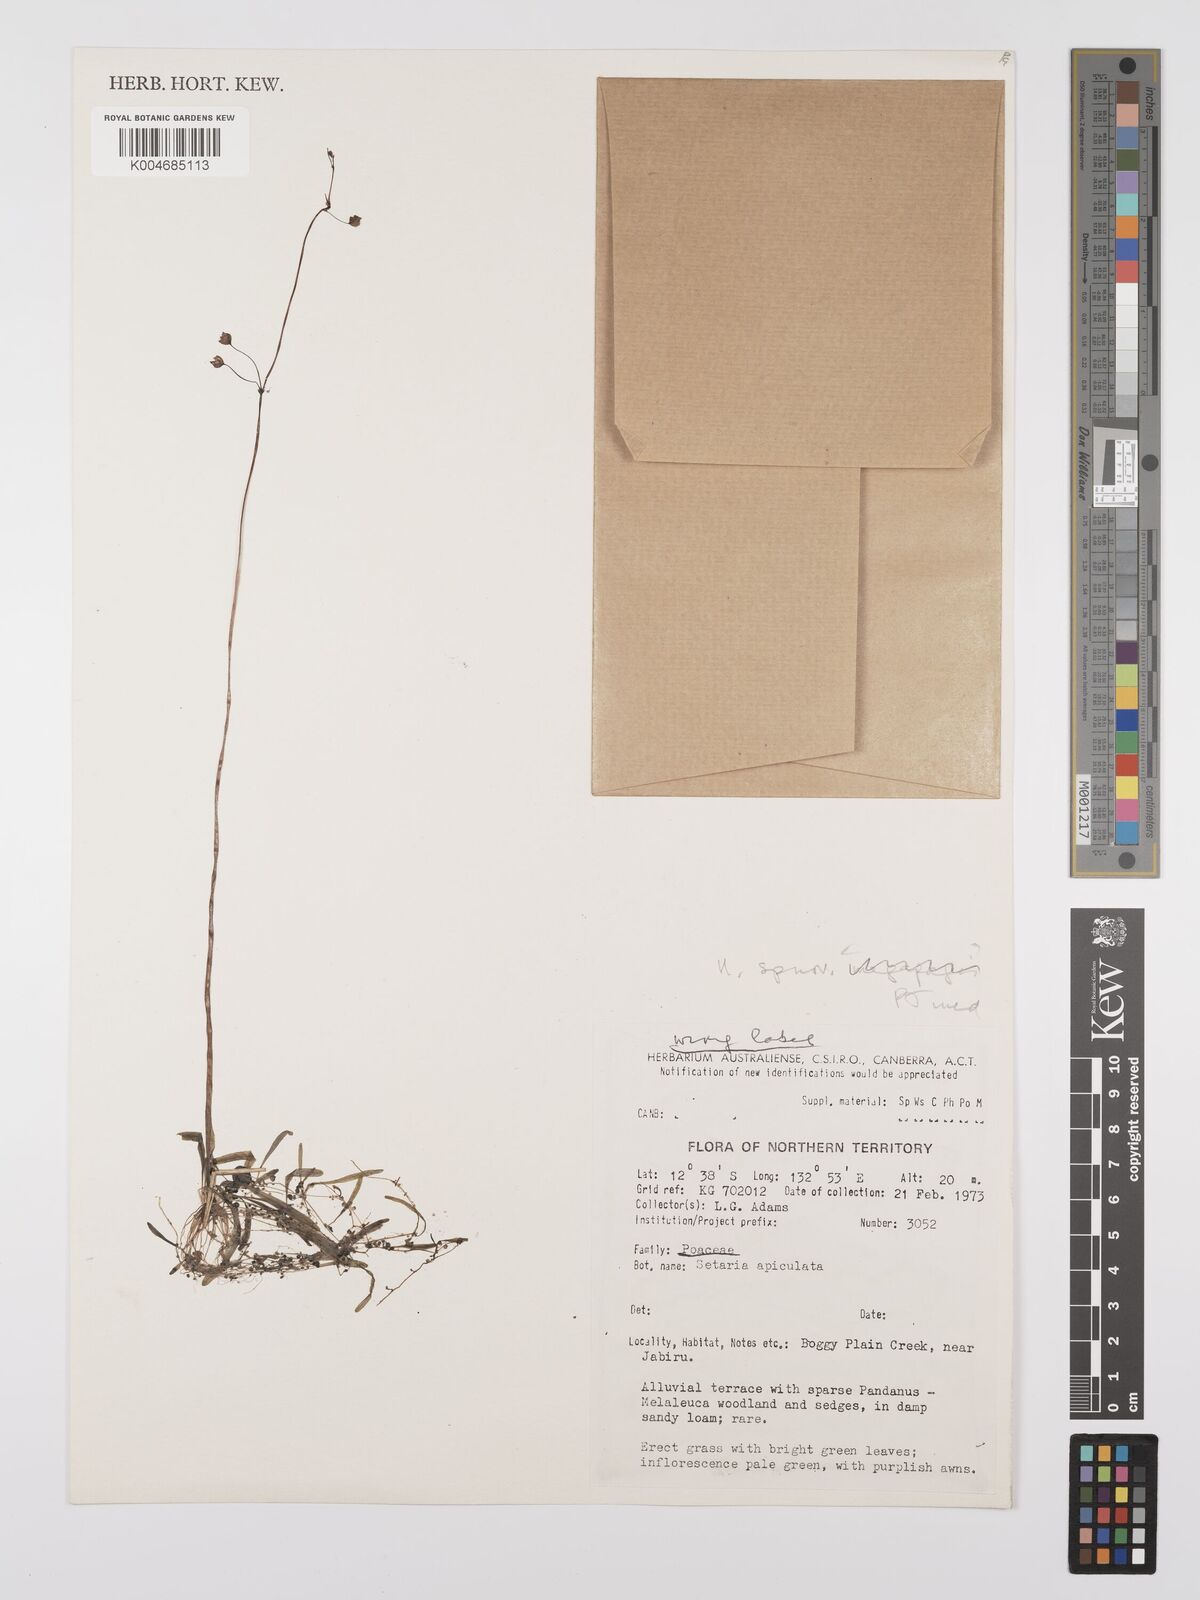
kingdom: Plantae
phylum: Tracheophyta
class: Magnoliopsida
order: Lamiales
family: Lentibulariaceae
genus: Utricularia
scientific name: Utricularia arnhemica
